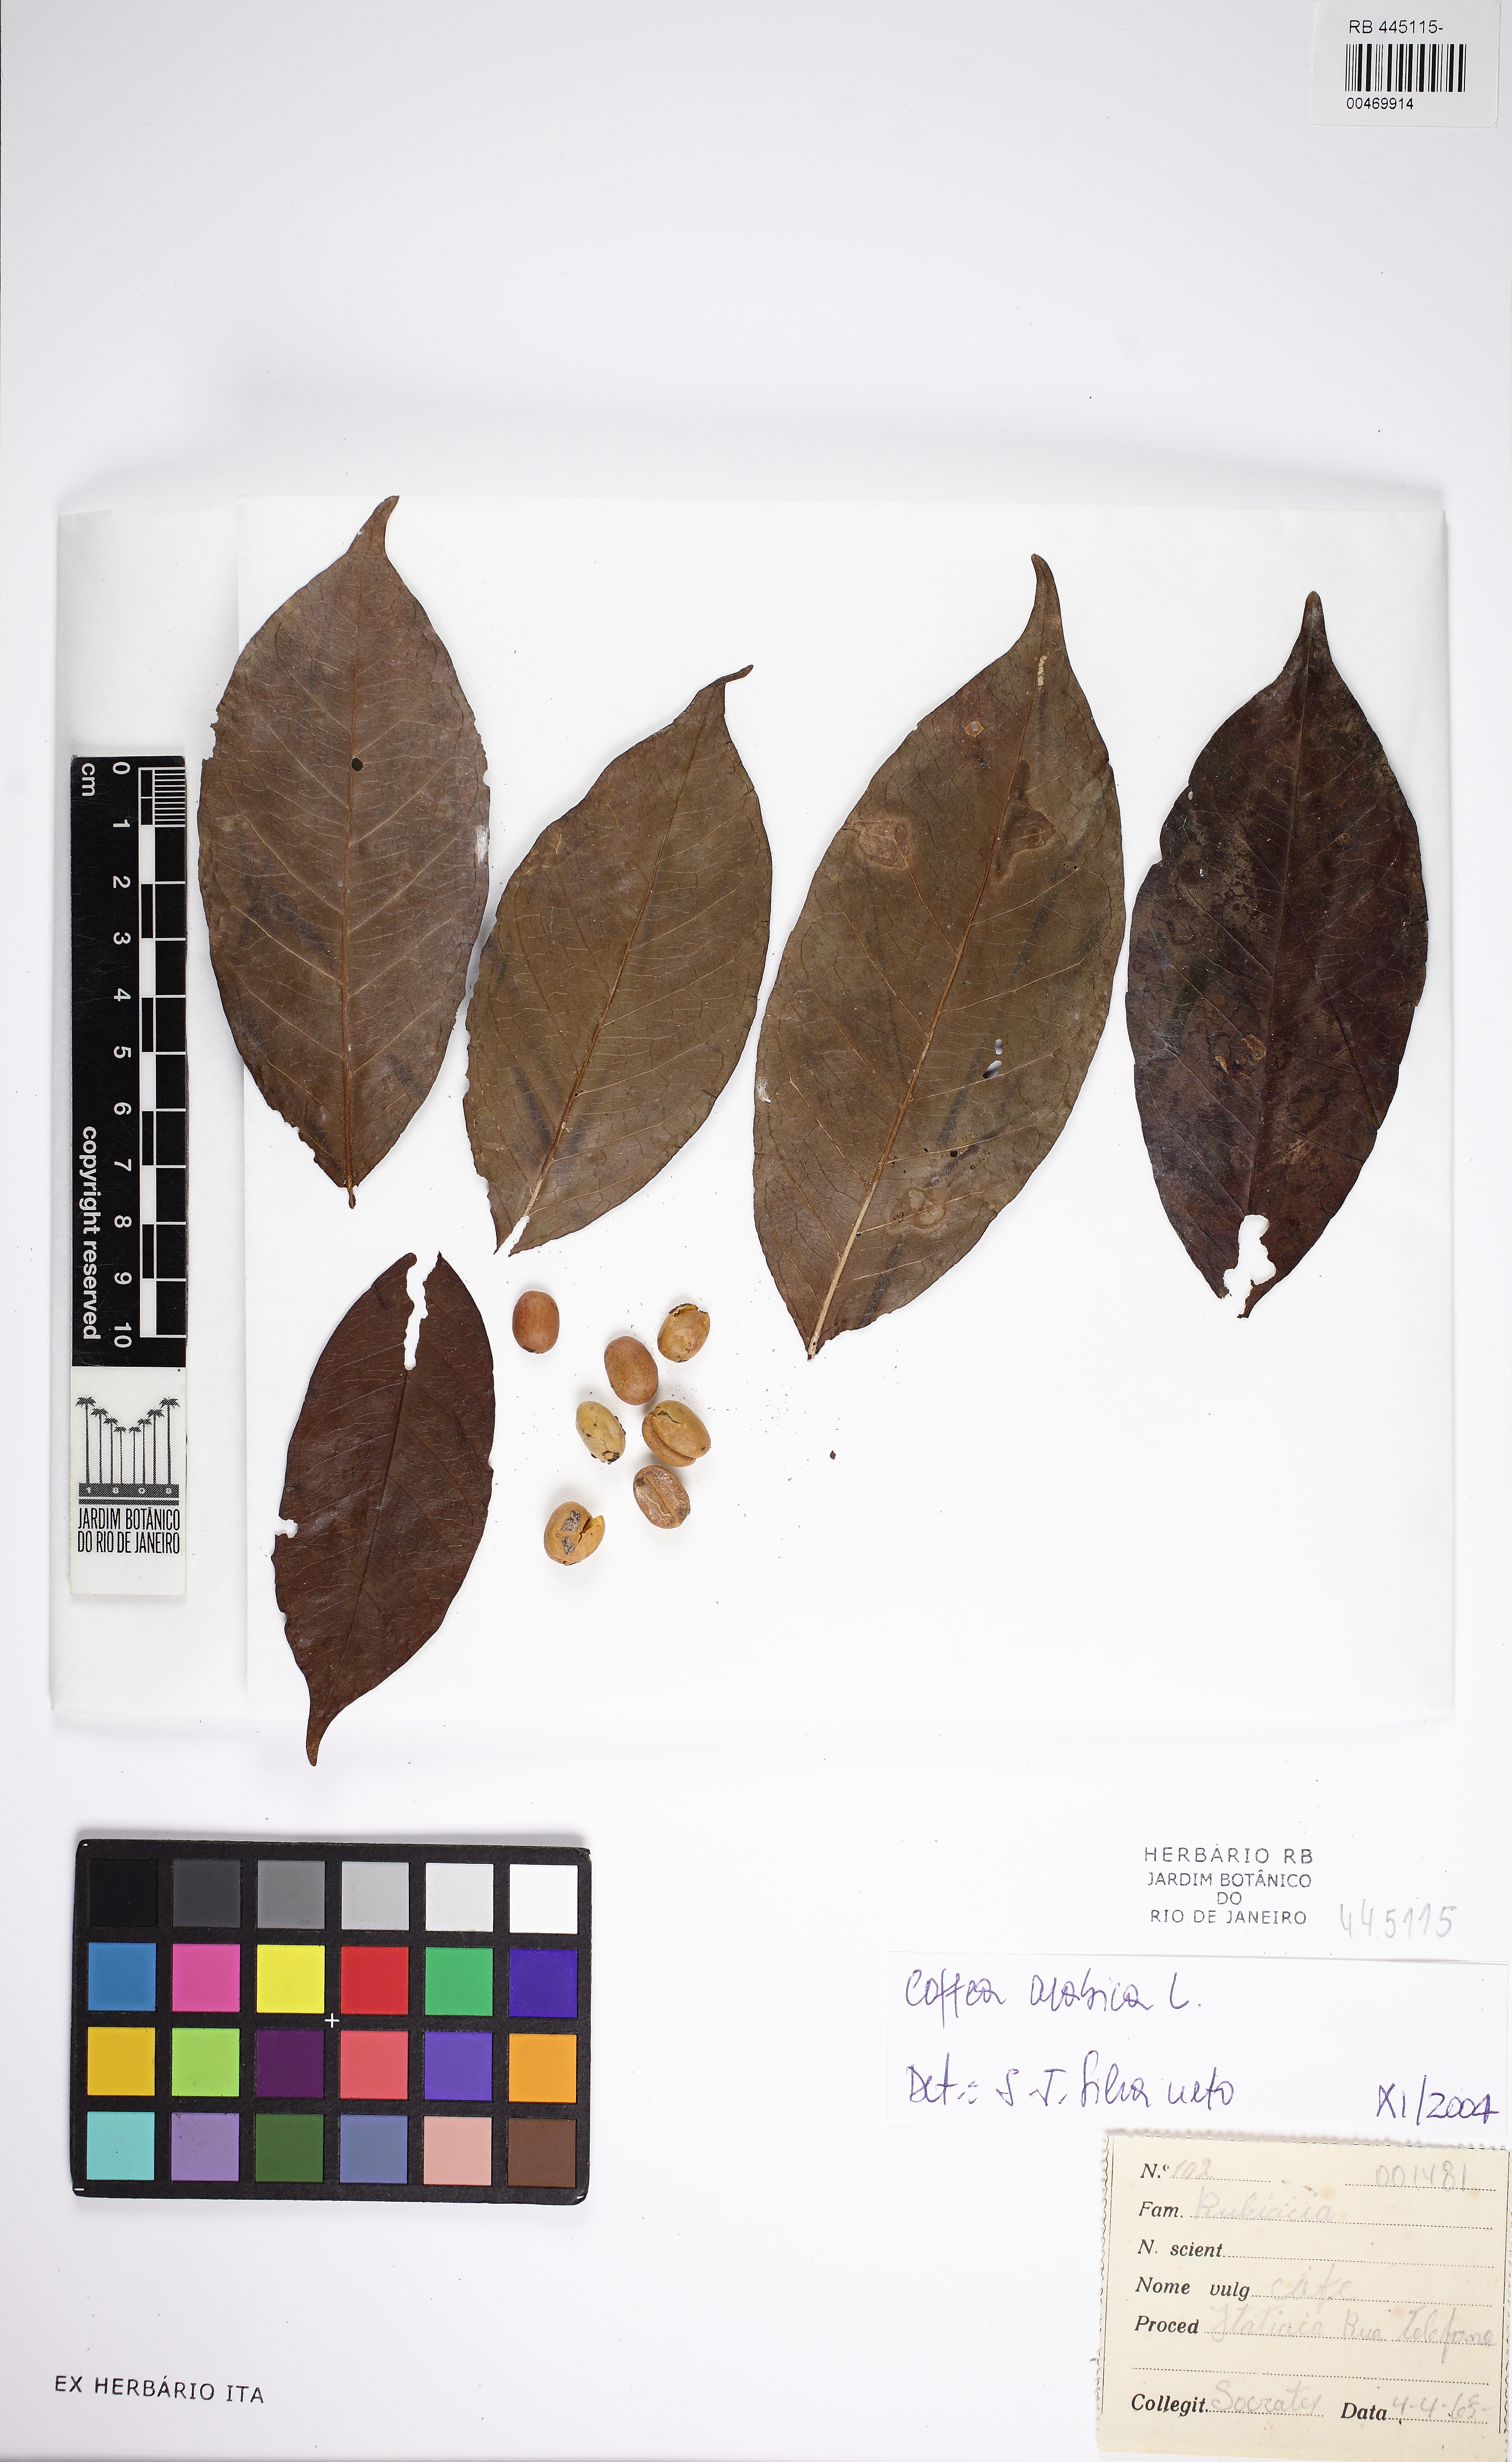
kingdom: Plantae
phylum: Tracheophyta
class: Magnoliopsida
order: Gentianales
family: Rubiaceae
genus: Coffea
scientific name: Coffea arabica
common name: Coffee
